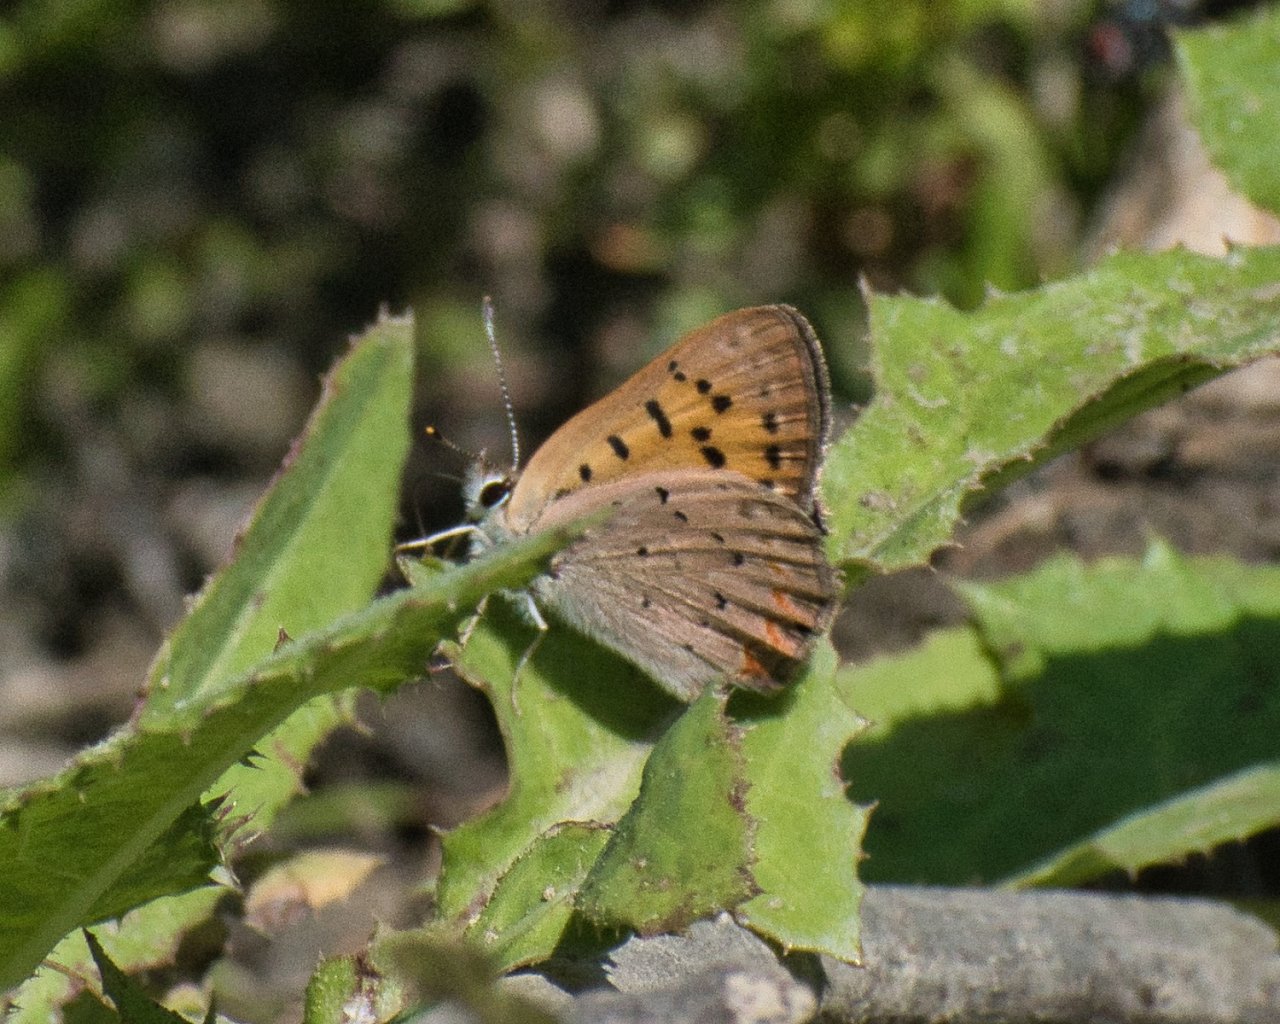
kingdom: Animalia
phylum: Arthropoda
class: Insecta
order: Lepidoptera
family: Sesiidae
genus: Sesia
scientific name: Sesia Lycaena helloides
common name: Purplish Copper
